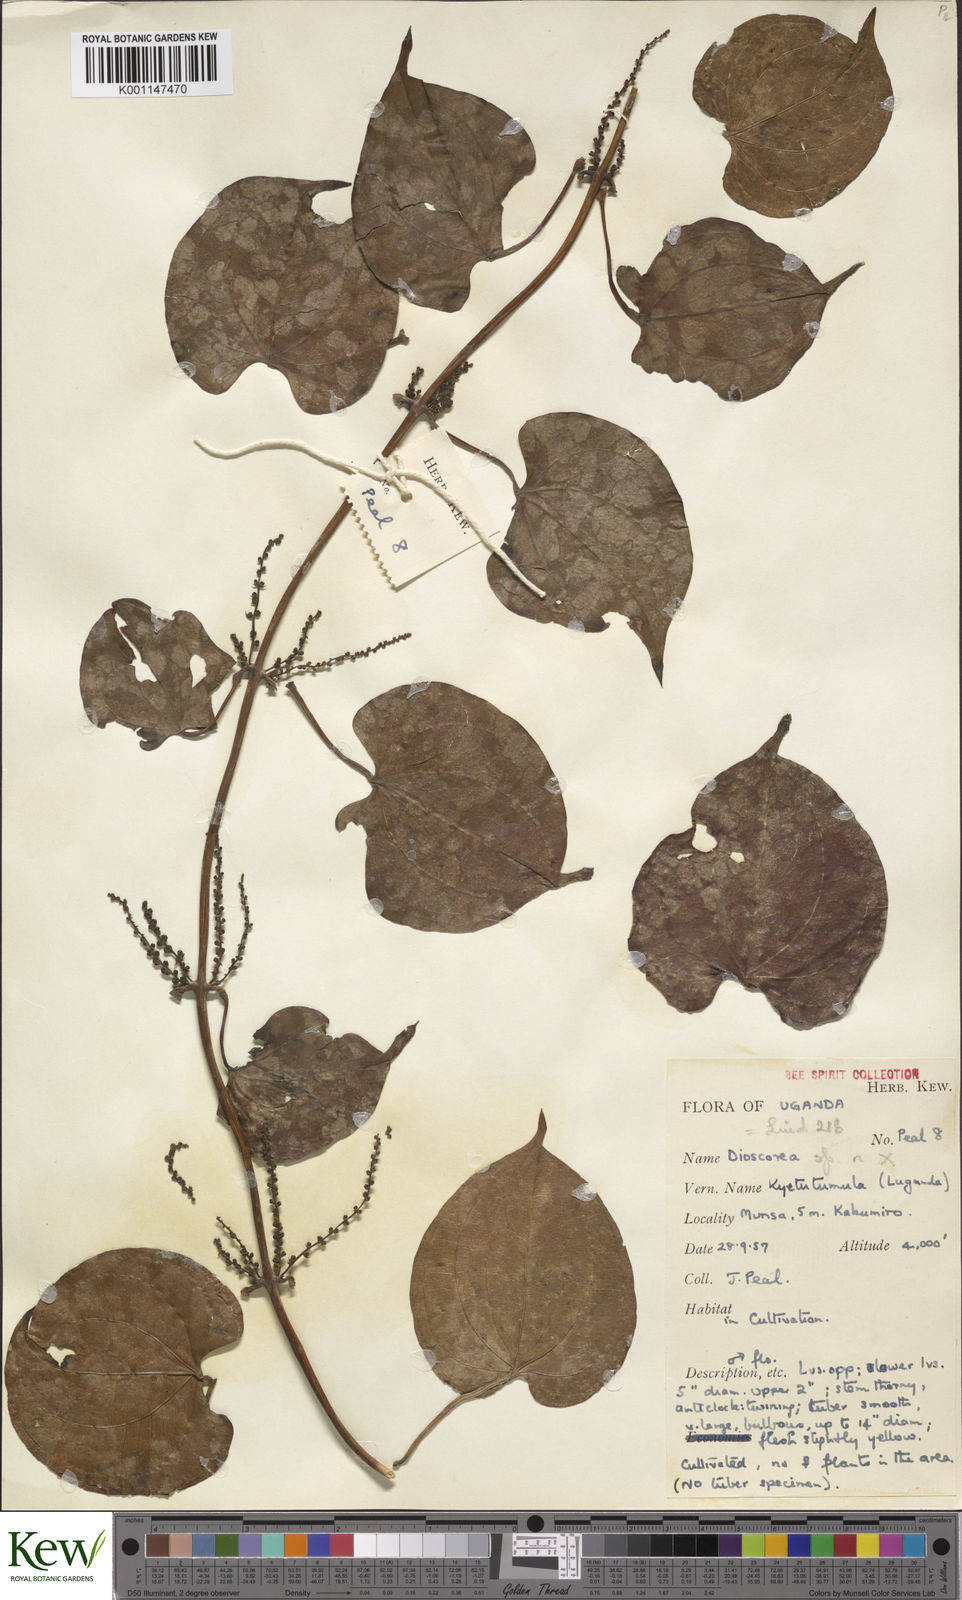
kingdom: Plantae
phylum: Tracheophyta
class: Liliopsida
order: Dioscoreales
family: Dioscoreaceae
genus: Dioscorea
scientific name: Dioscorea
